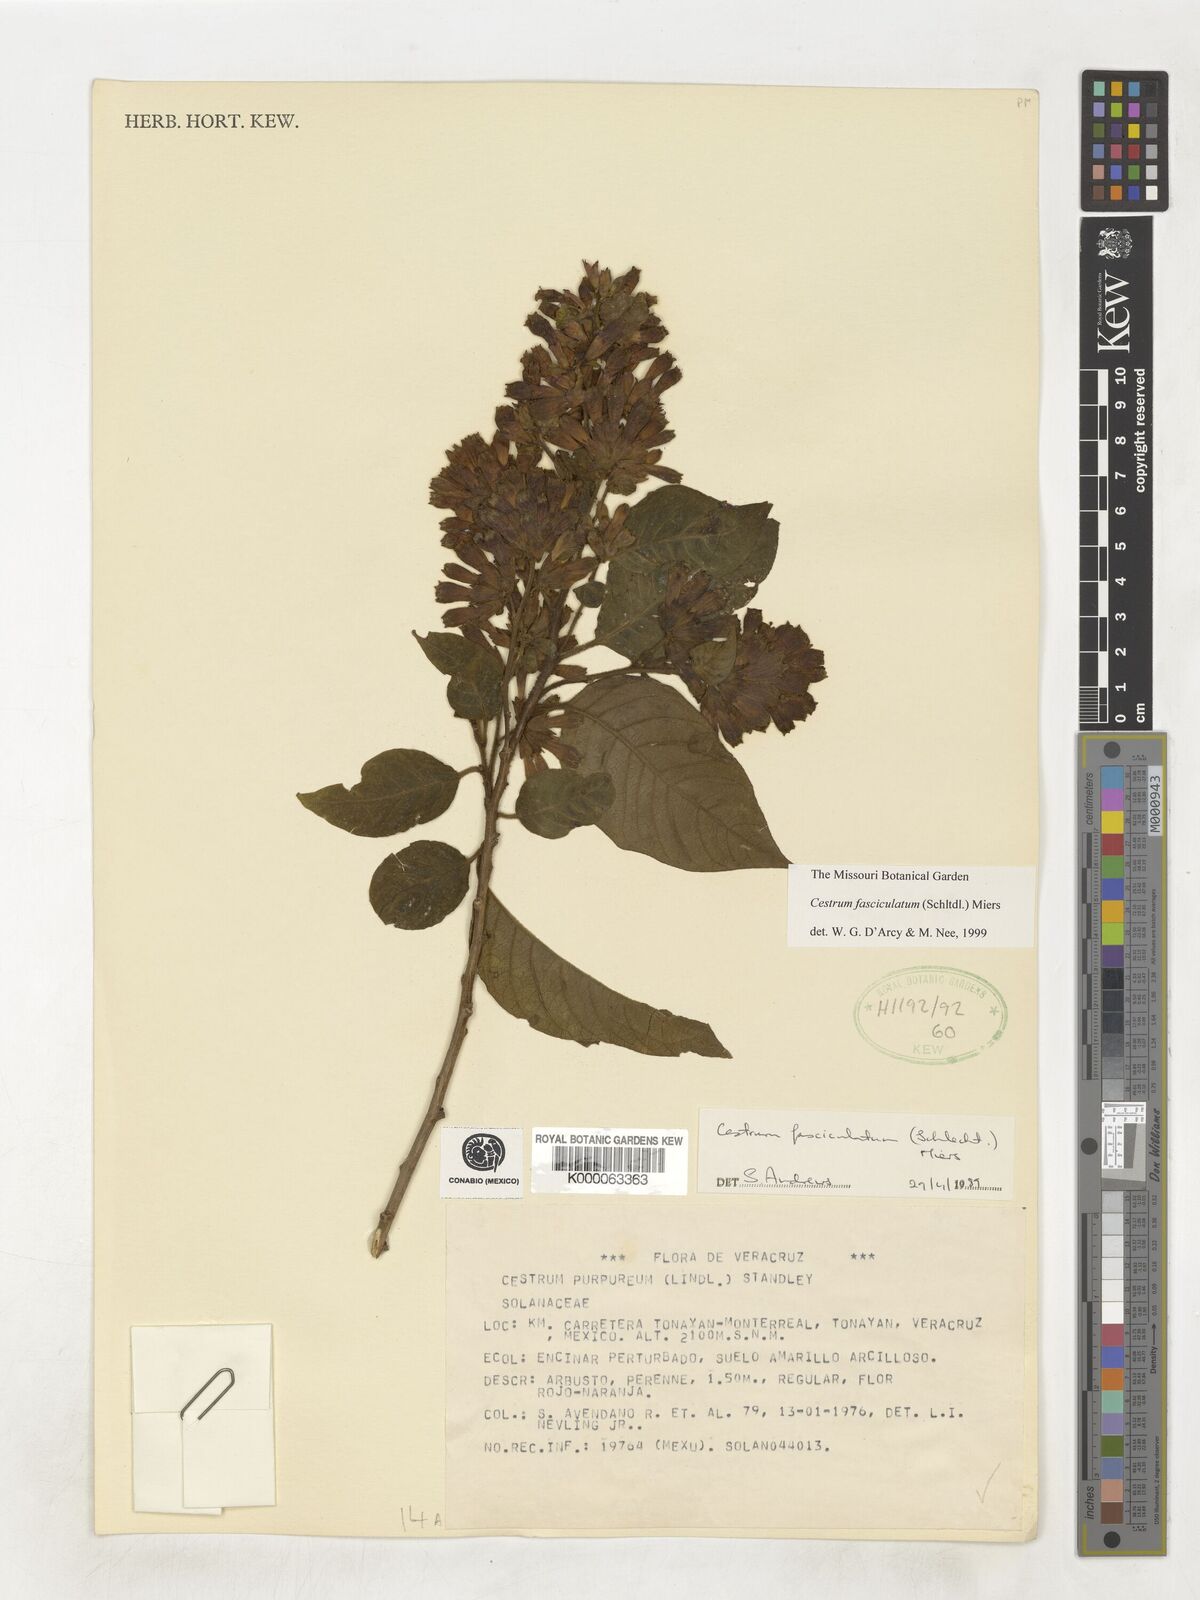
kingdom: Plantae
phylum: Tracheophyta
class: Magnoliopsida
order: Solanales
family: Solanaceae
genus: Cestrum
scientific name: Cestrum fasciculatum
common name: Early jessamine
